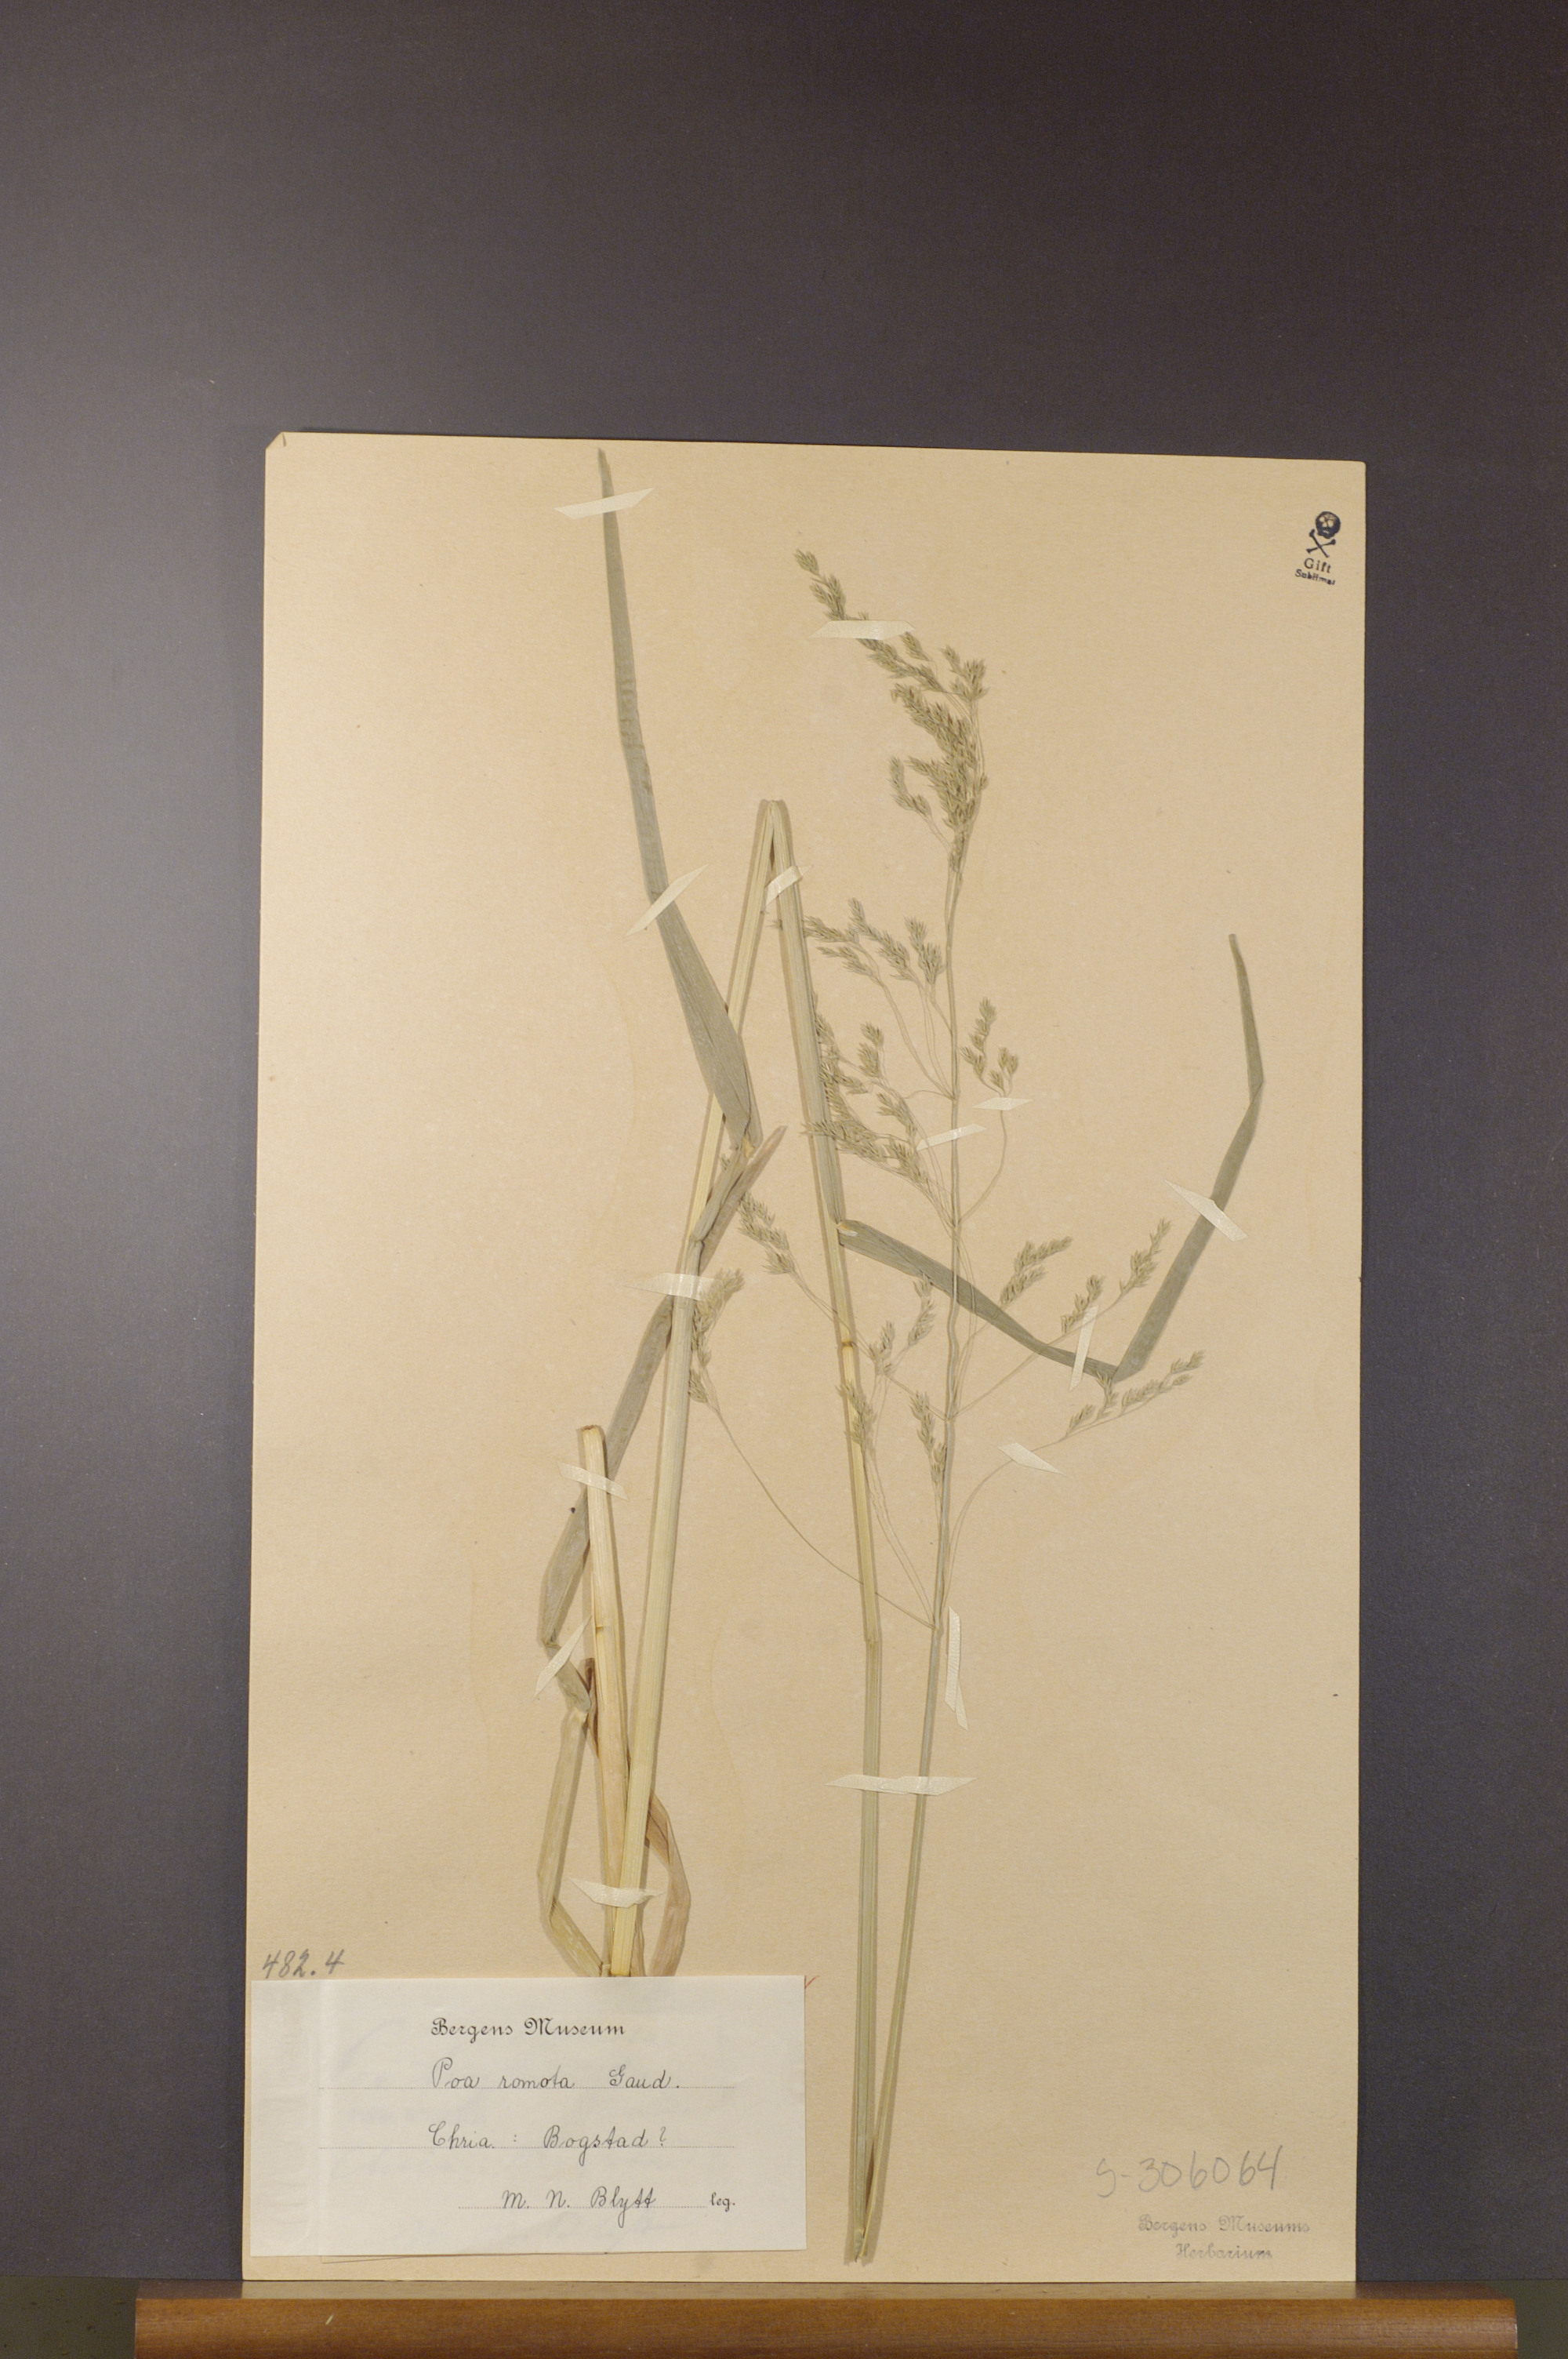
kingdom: Plantae
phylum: Tracheophyta
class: Liliopsida
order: Poales
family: Poaceae
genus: Poa
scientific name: Poa remota
